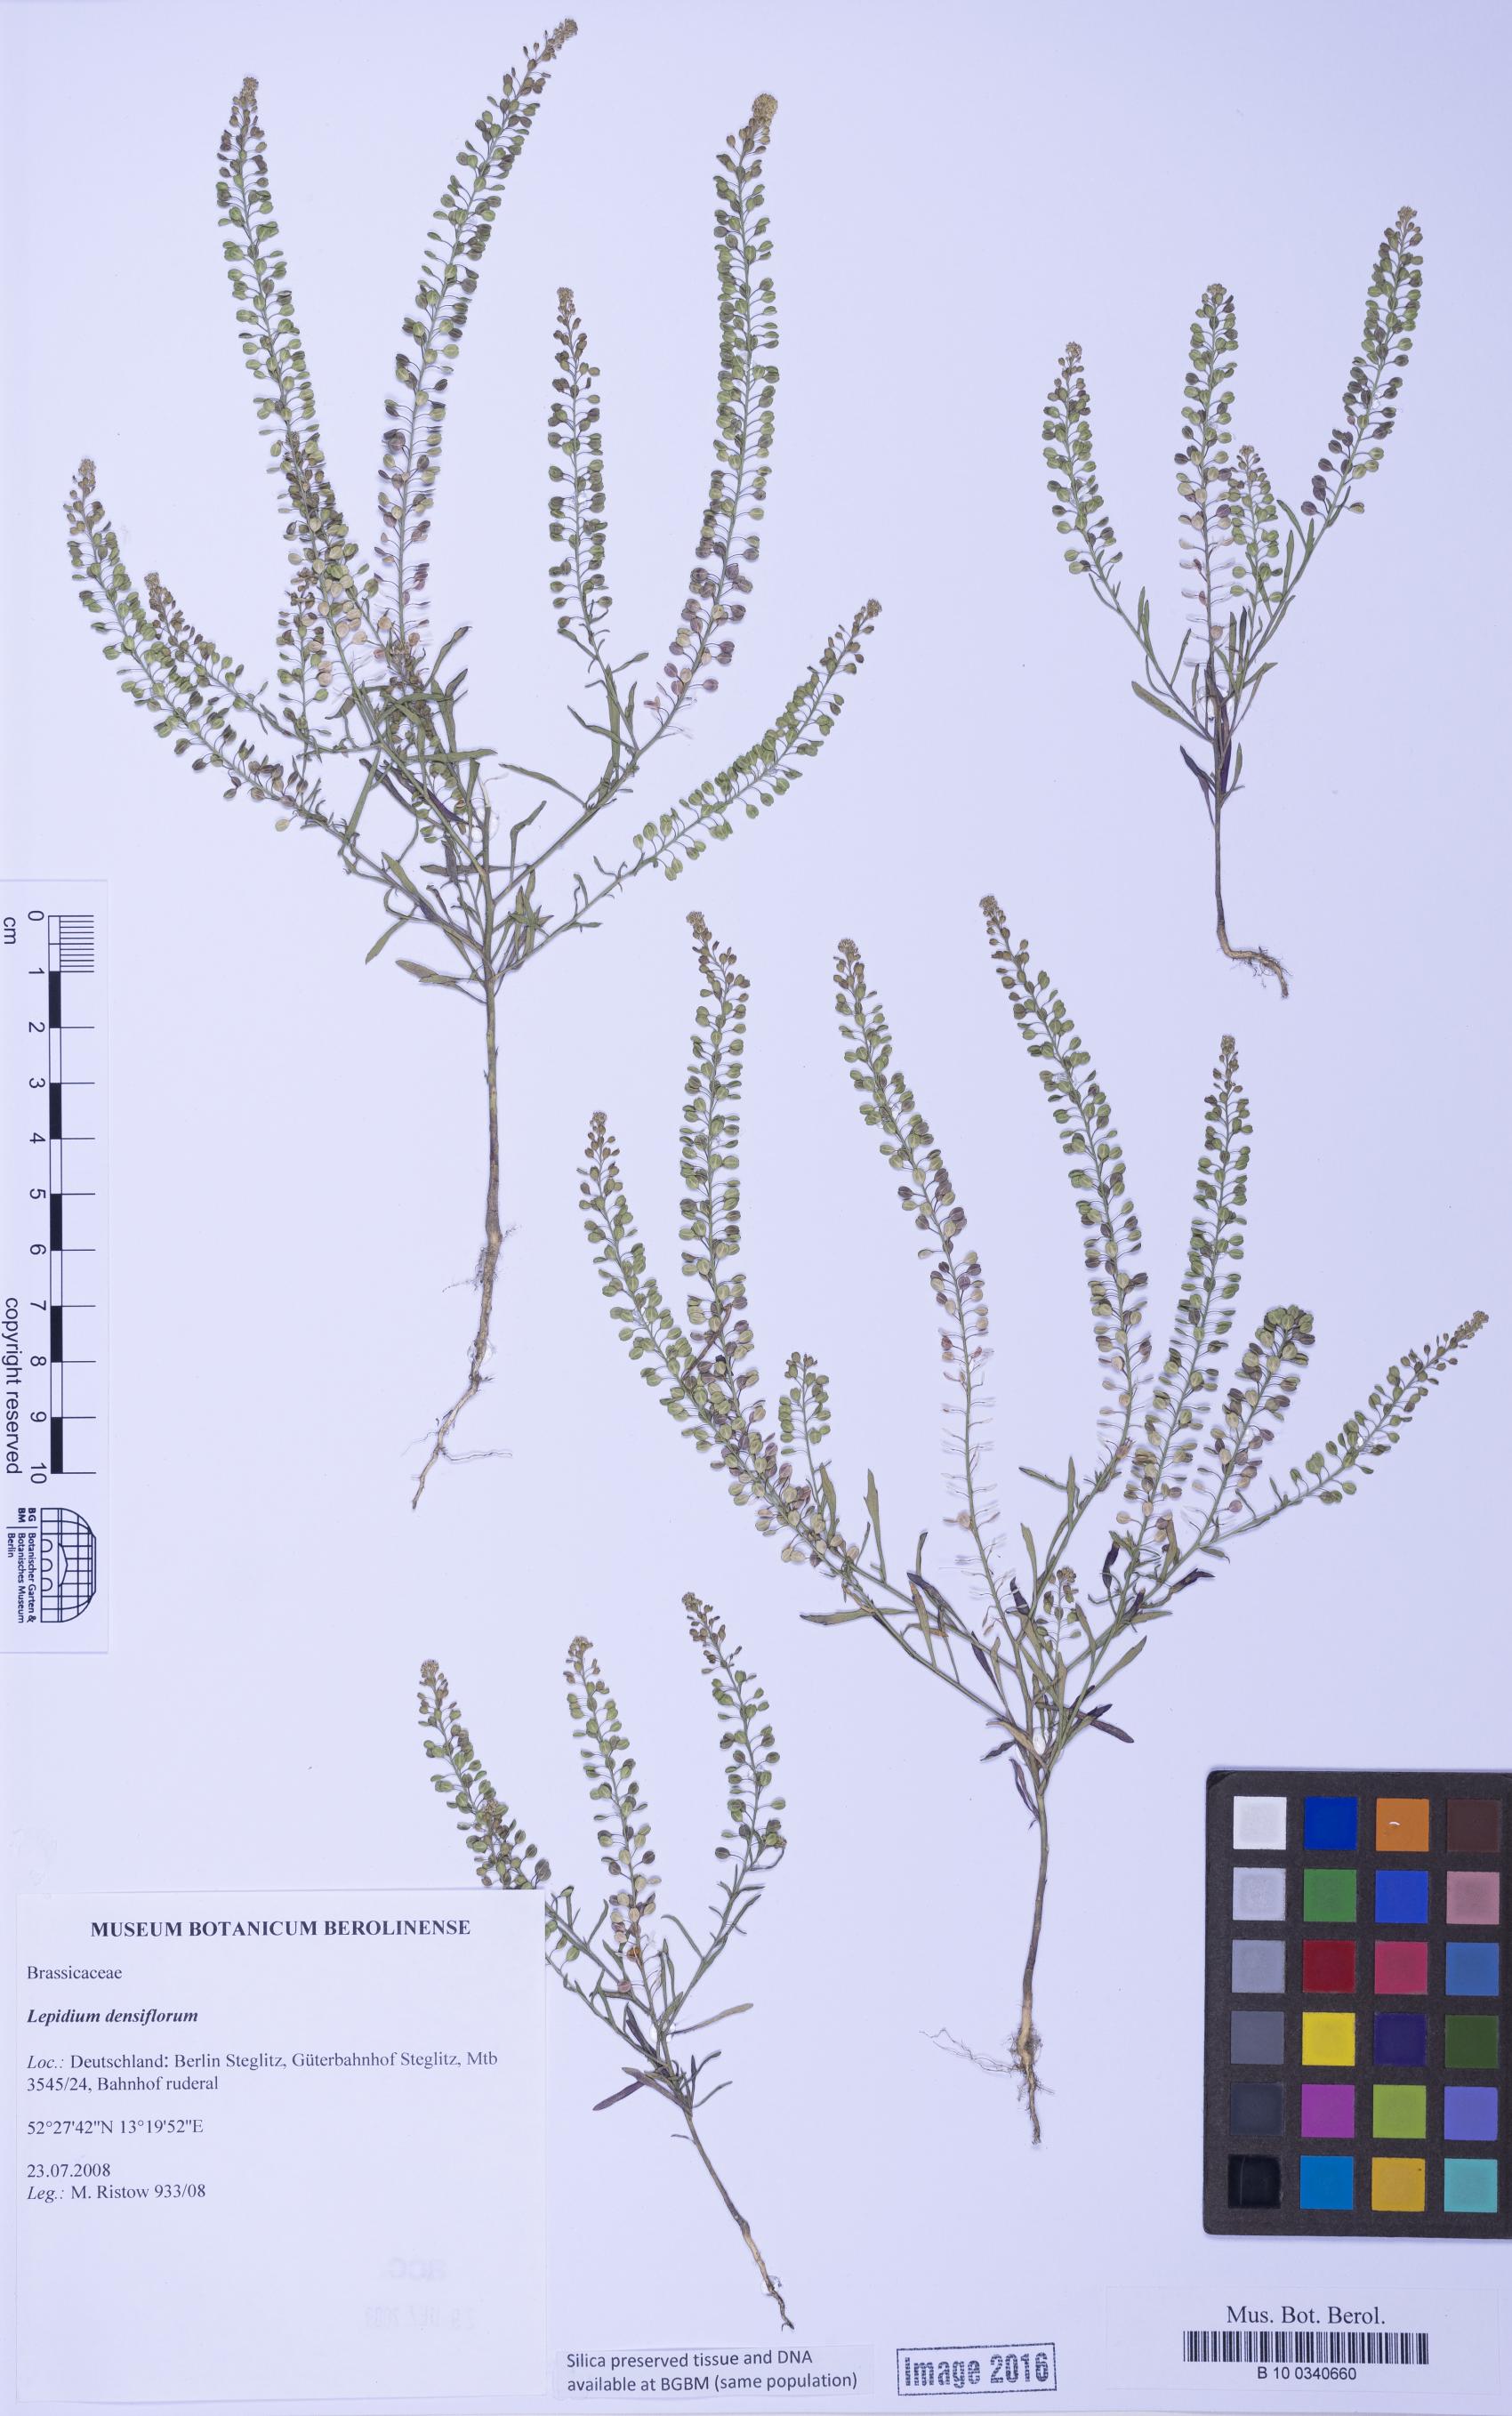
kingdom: Plantae
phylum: Tracheophyta
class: Magnoliopsida
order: Brassicales
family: Brassicaceae
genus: Lepidium
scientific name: Lepidium densiflorum
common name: Miner's pepperwort
